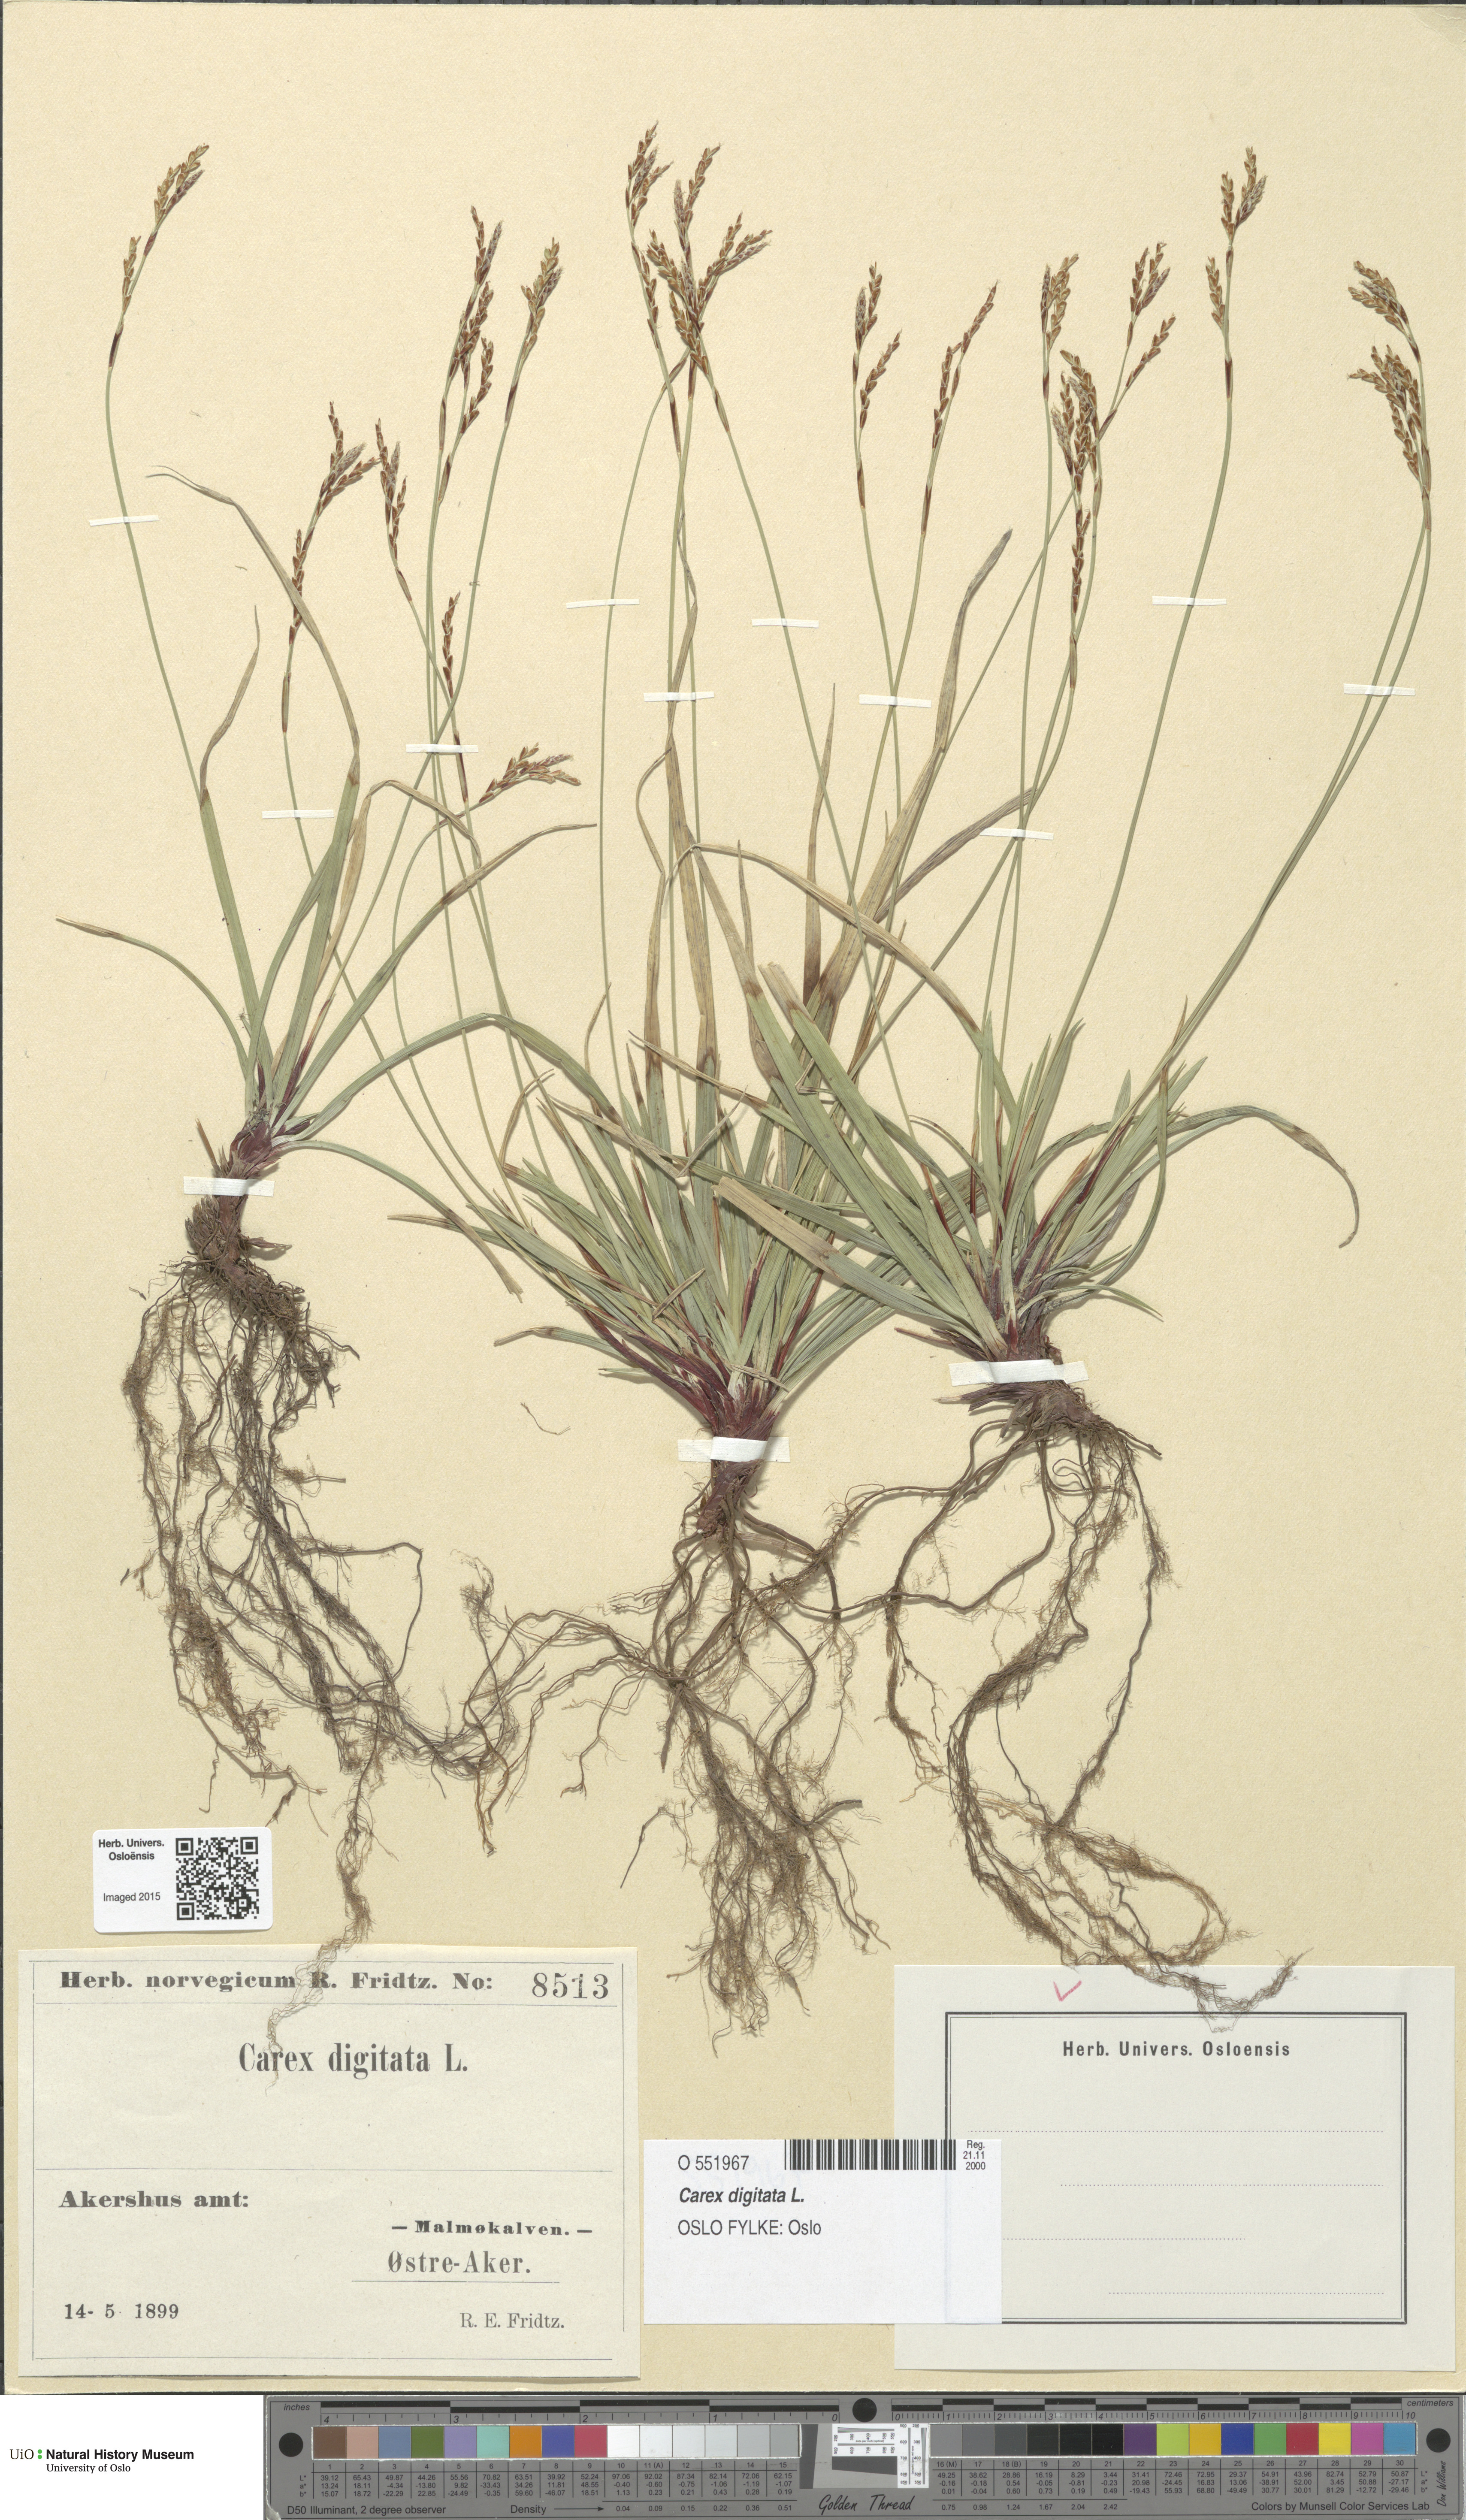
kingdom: Plantae
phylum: Tracheophyta
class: Liliopsida
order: Poales
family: Cyperaceae
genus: Carex
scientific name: Carex digitata
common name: Fingered sedge
